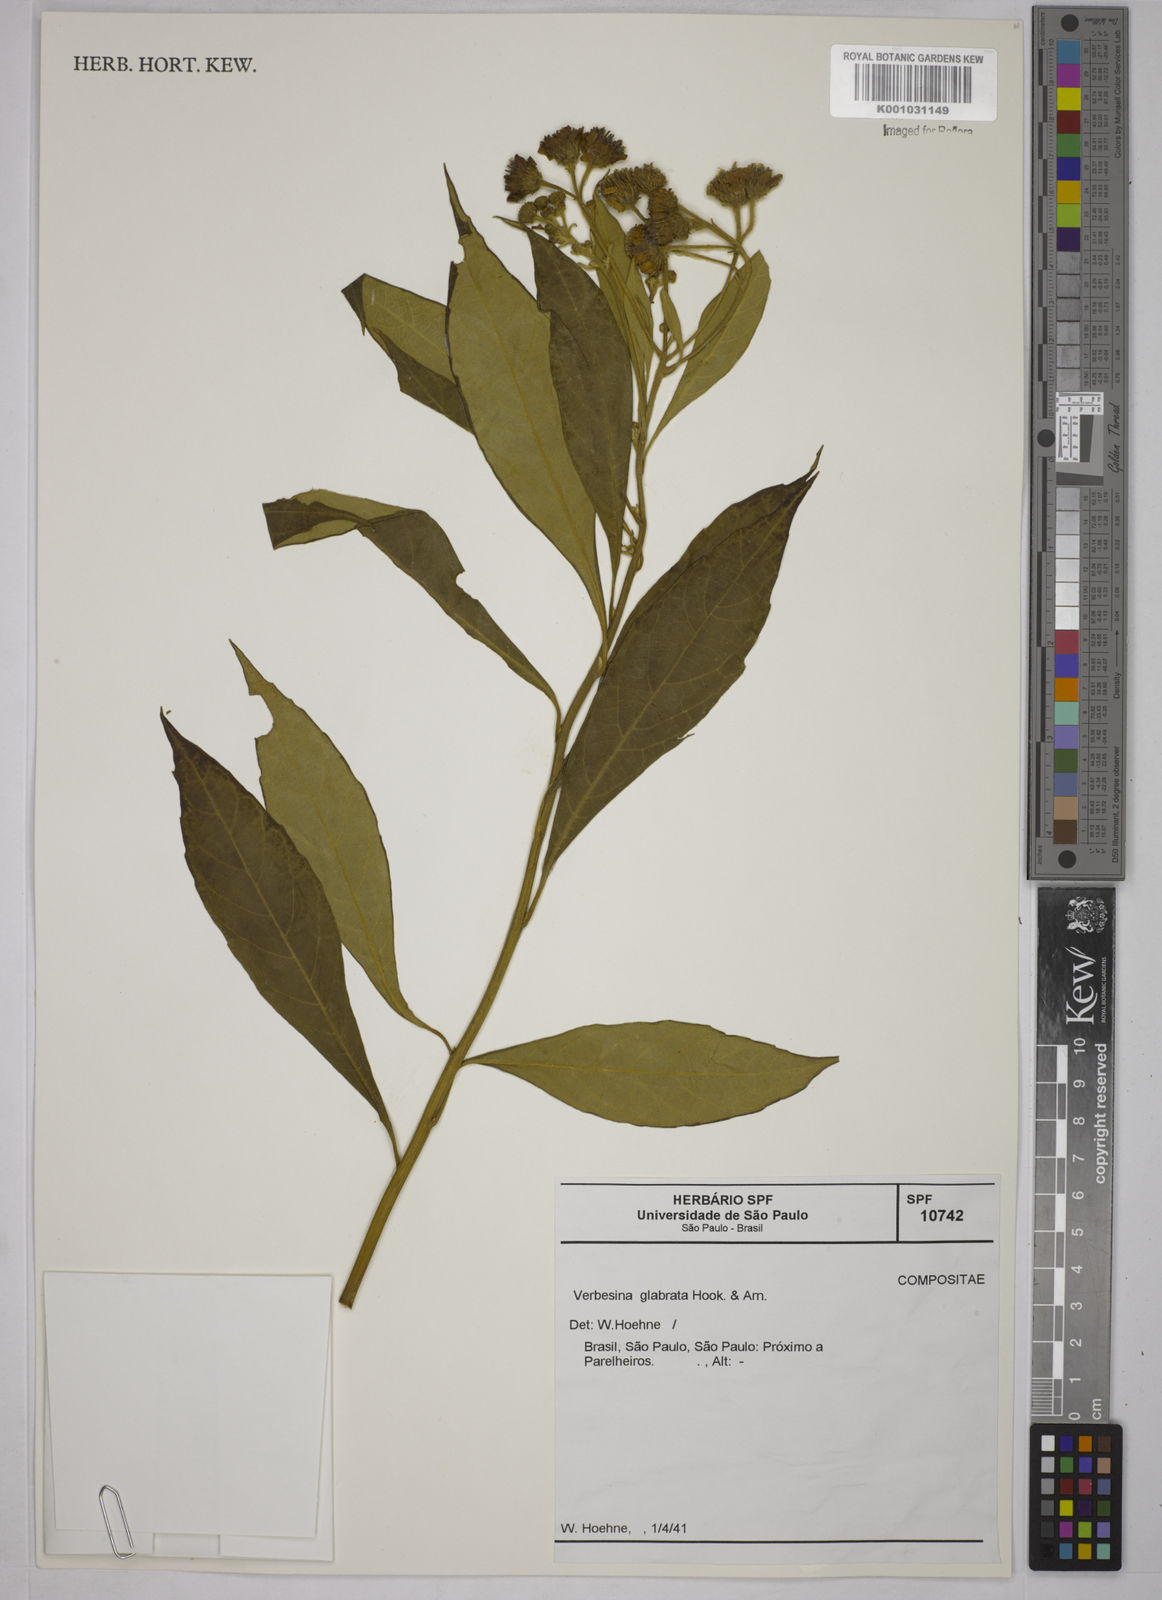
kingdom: Plantae
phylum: Tracheophyta
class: Magnoliopsida
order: Asterales
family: Asteraceae
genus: Verbesina
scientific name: Verbesina glabrata
